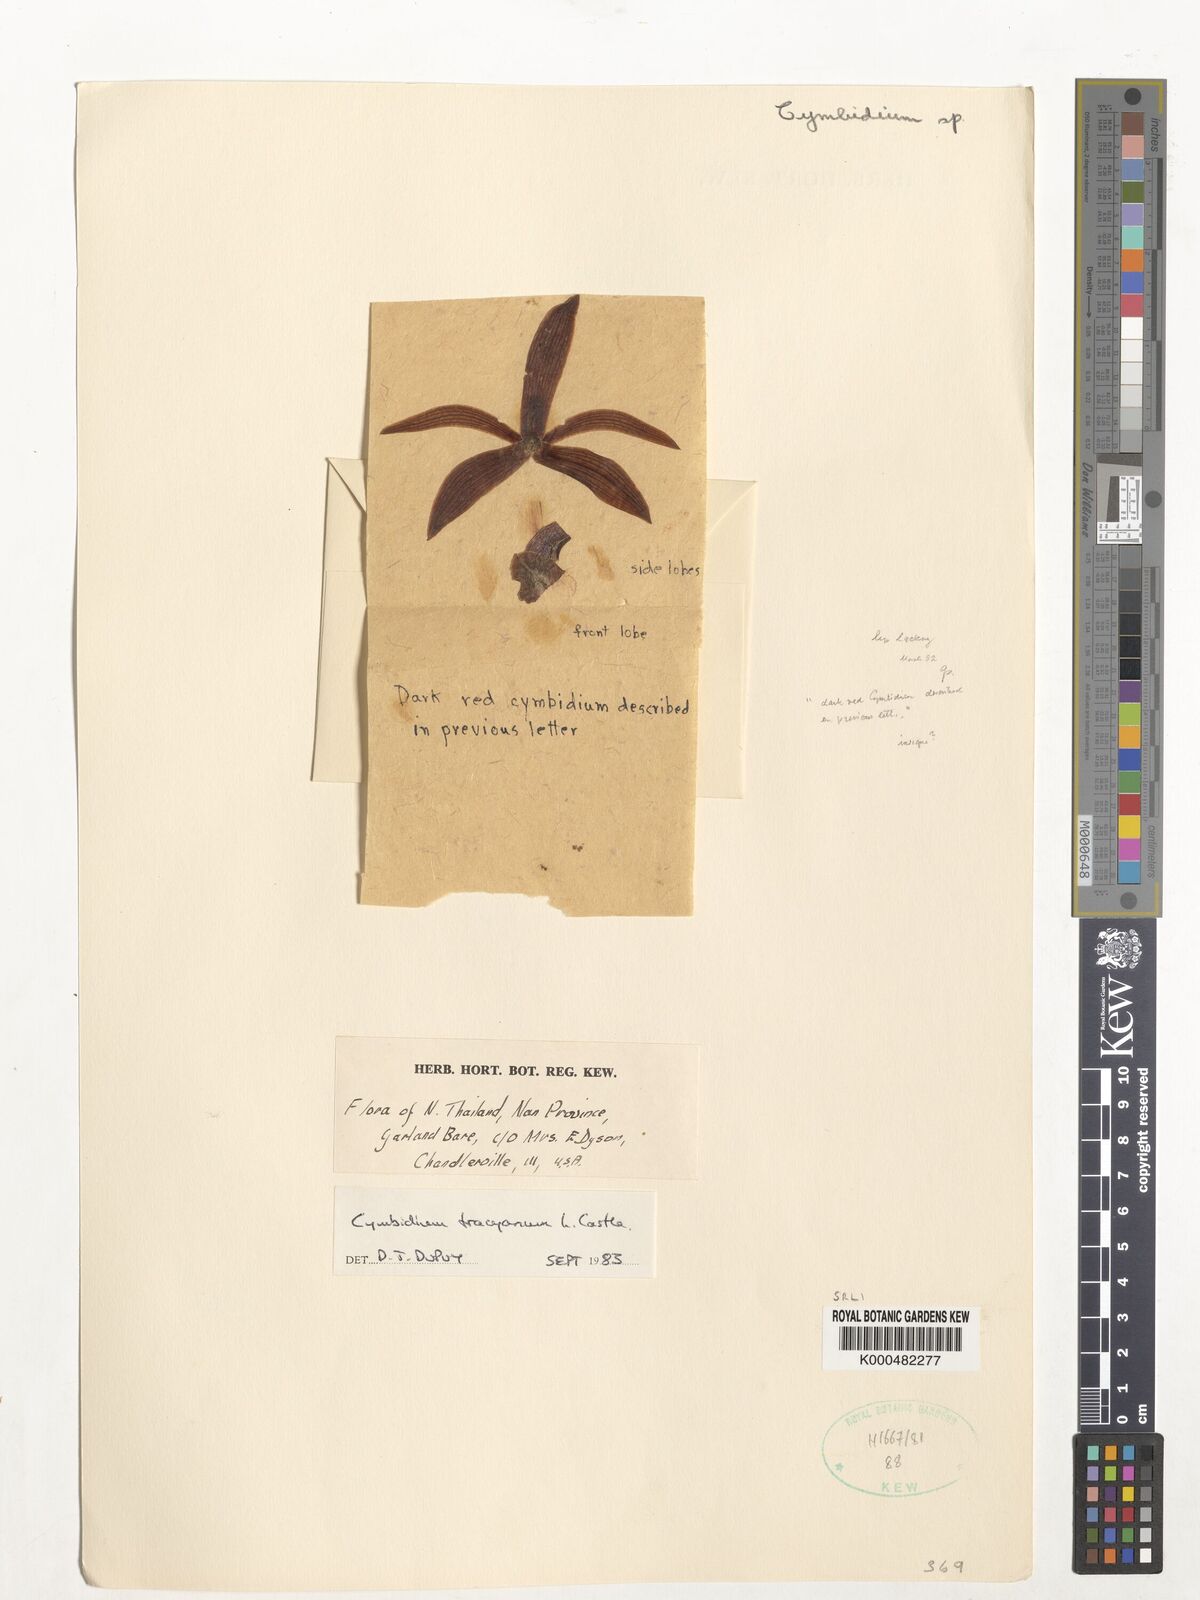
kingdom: Plantae
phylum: Tracheophyta
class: Liliopsida
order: Asparagales
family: Orchidaceae
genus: Cymbidium
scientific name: Cymbidium
